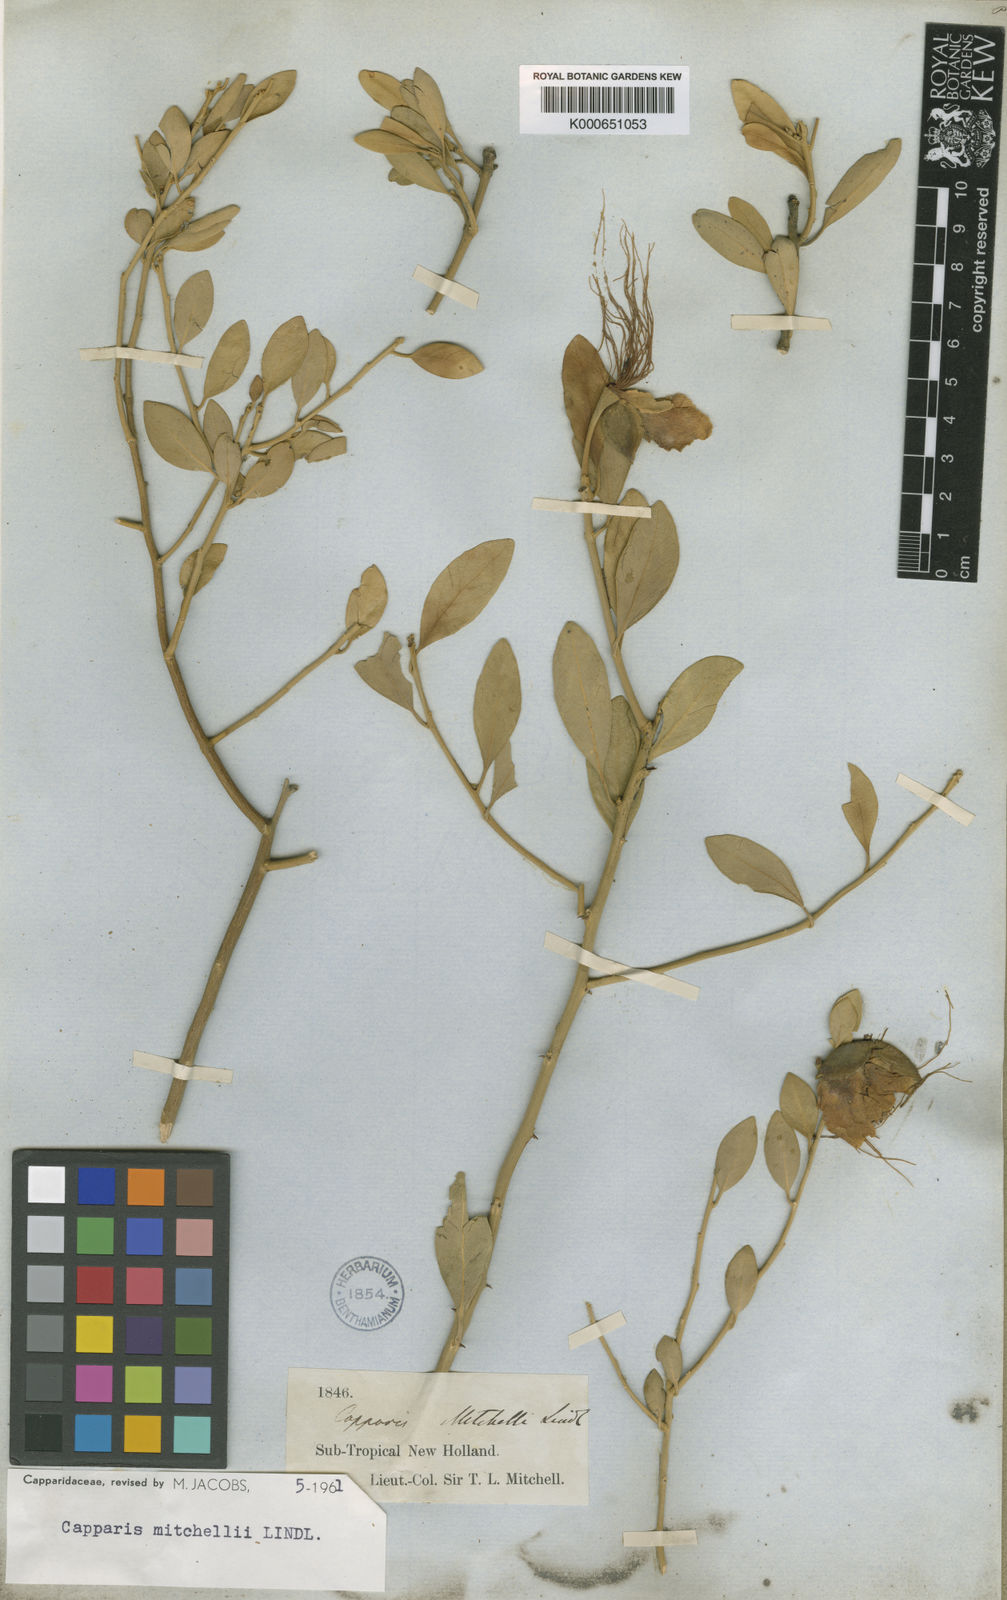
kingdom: Plantae
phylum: Tracheophyta
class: Magnoliopsida
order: Brassicales
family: Capparaceae
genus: Capparis
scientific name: Capparis mitchellii
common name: Desert caper
